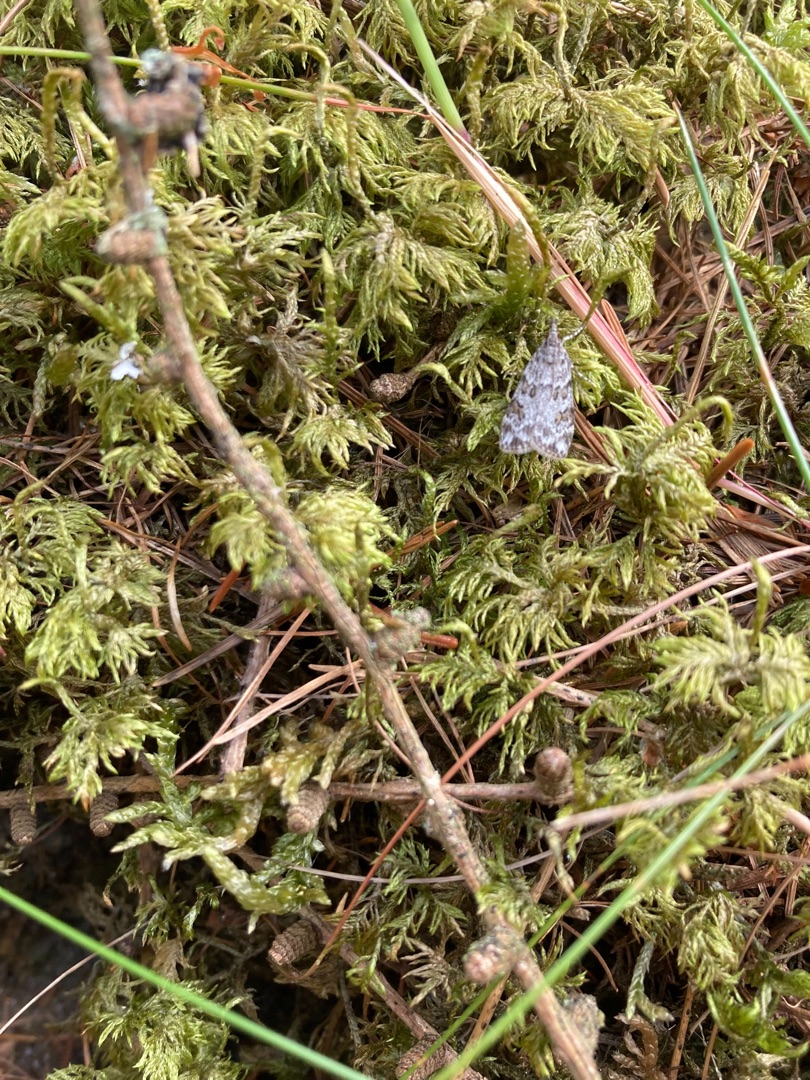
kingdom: Plantae
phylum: Bryophyta
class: Bryopsida
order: Hypnales
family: Hylocomiaceae
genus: Hylocomium
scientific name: Hylocomium splendens
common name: Almindelig etagemos
